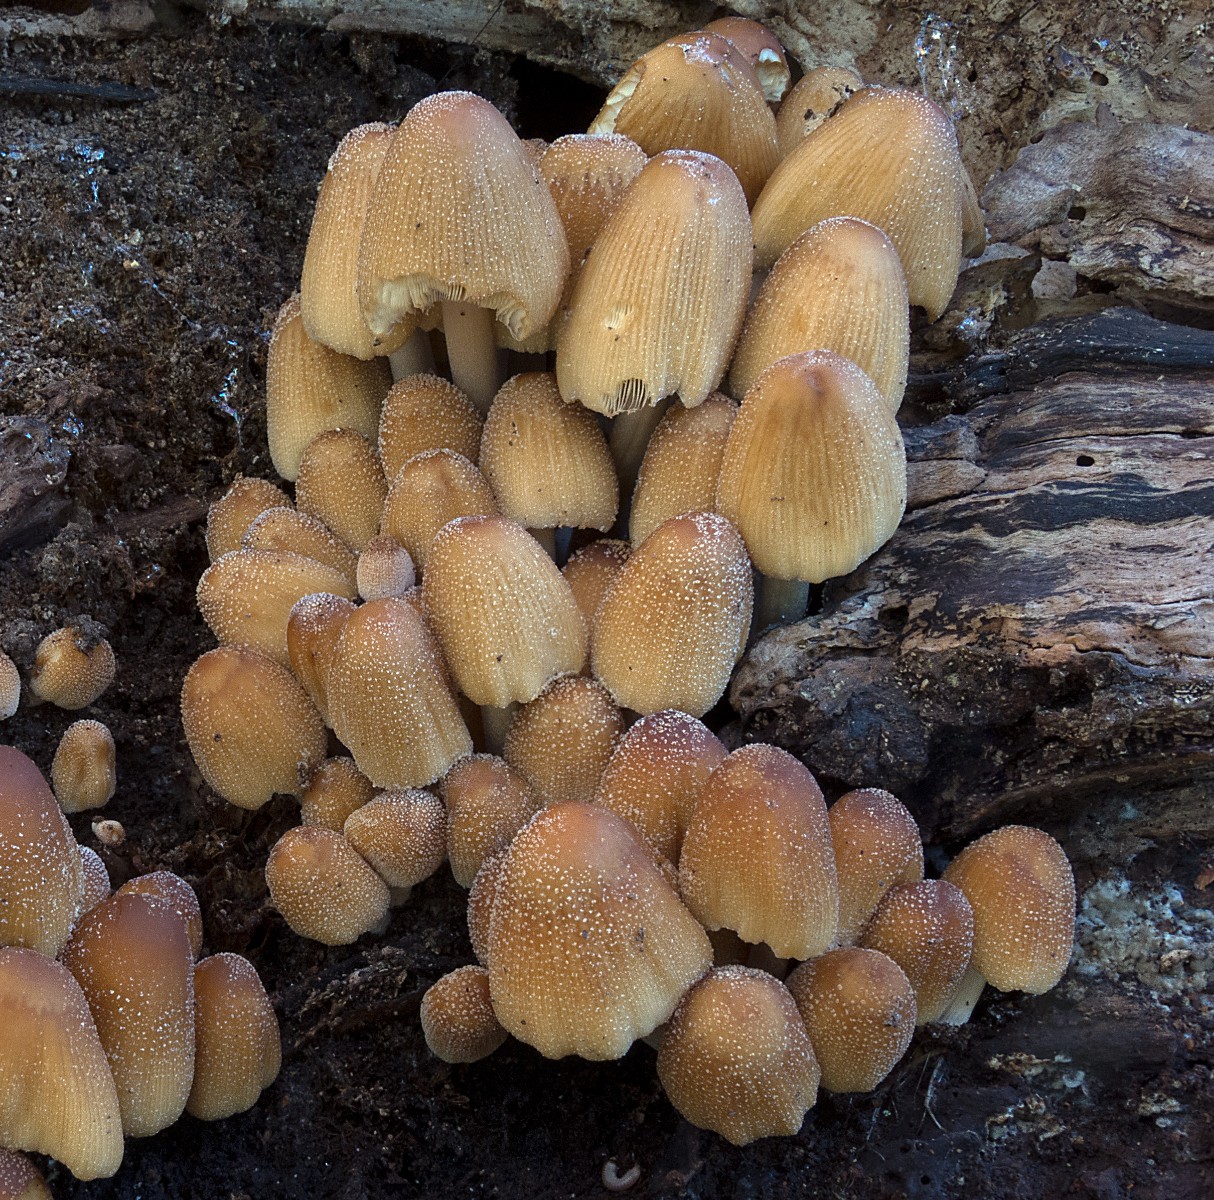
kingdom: Fungi
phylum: Basidiomycota
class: Agaricomycetes
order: Agaricales
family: Psathyrellaceae
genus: Coprinellus
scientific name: Coprinellus micaceus
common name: glimmer-blækhat
